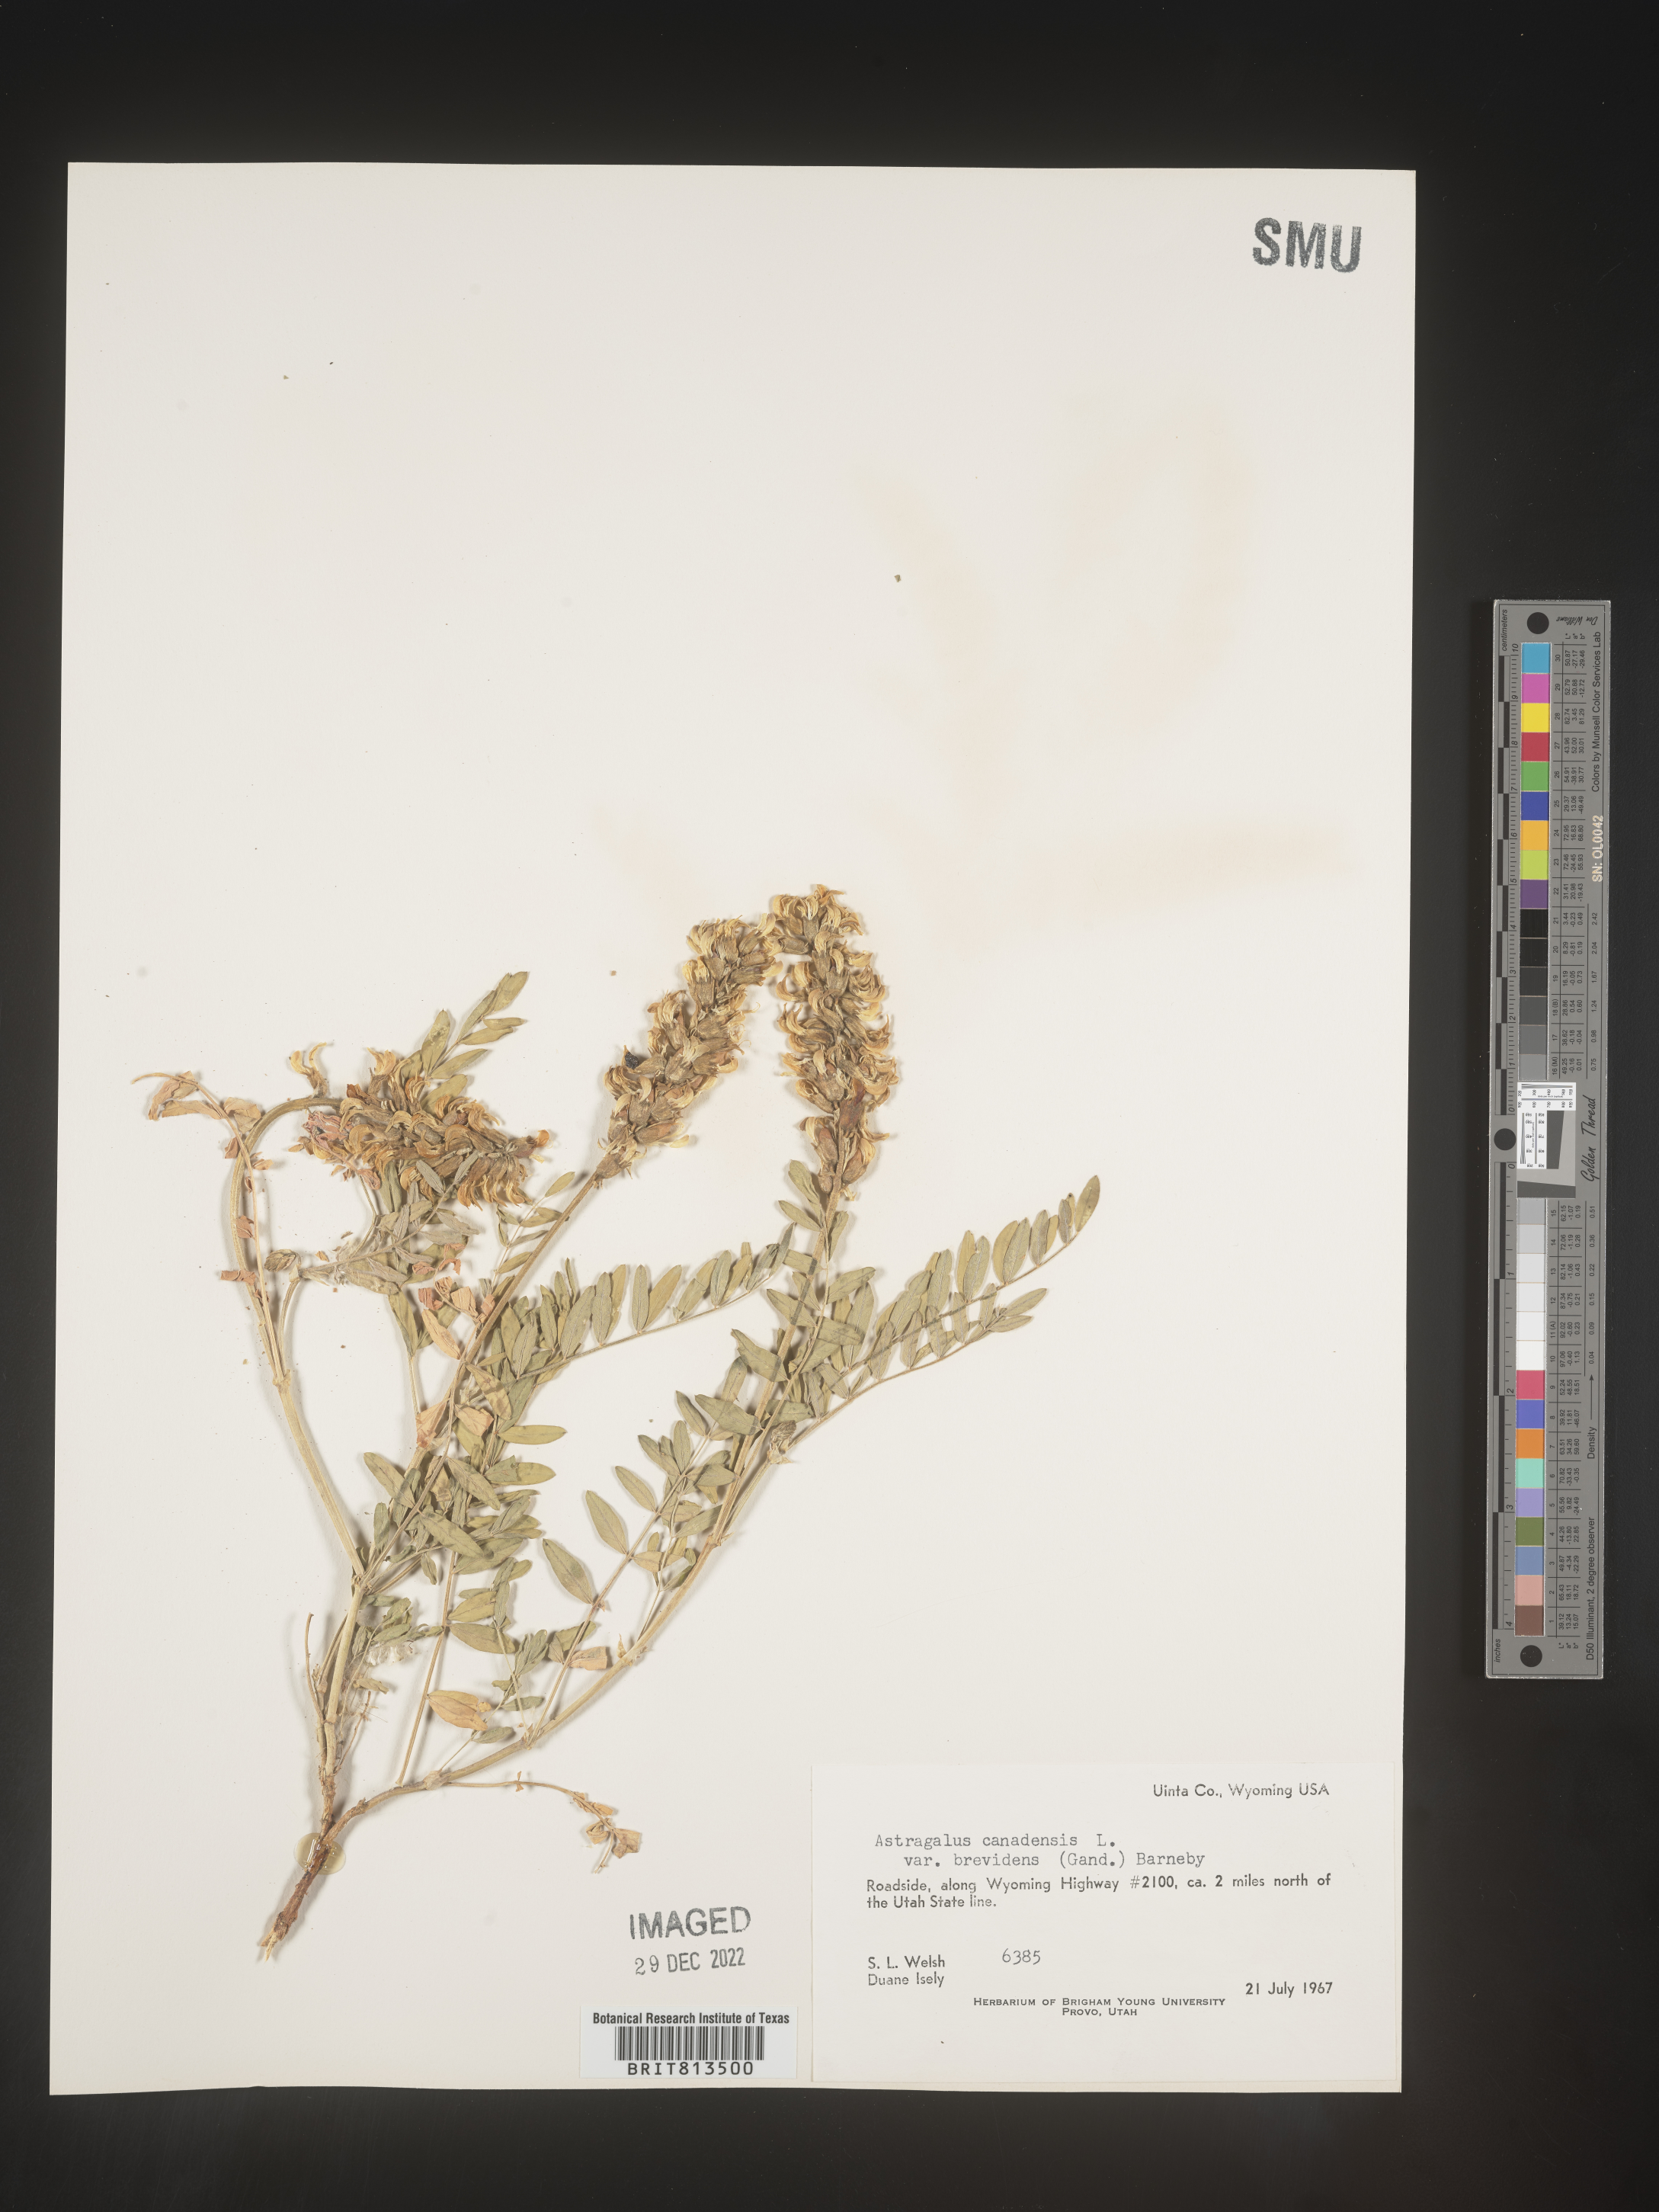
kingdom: Plantae
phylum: Tracheophyta
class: Magnoliopsida
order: Fabales
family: Fabaceae
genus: Astragalus
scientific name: Astragalus canadensis
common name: Canada milk-vetch
